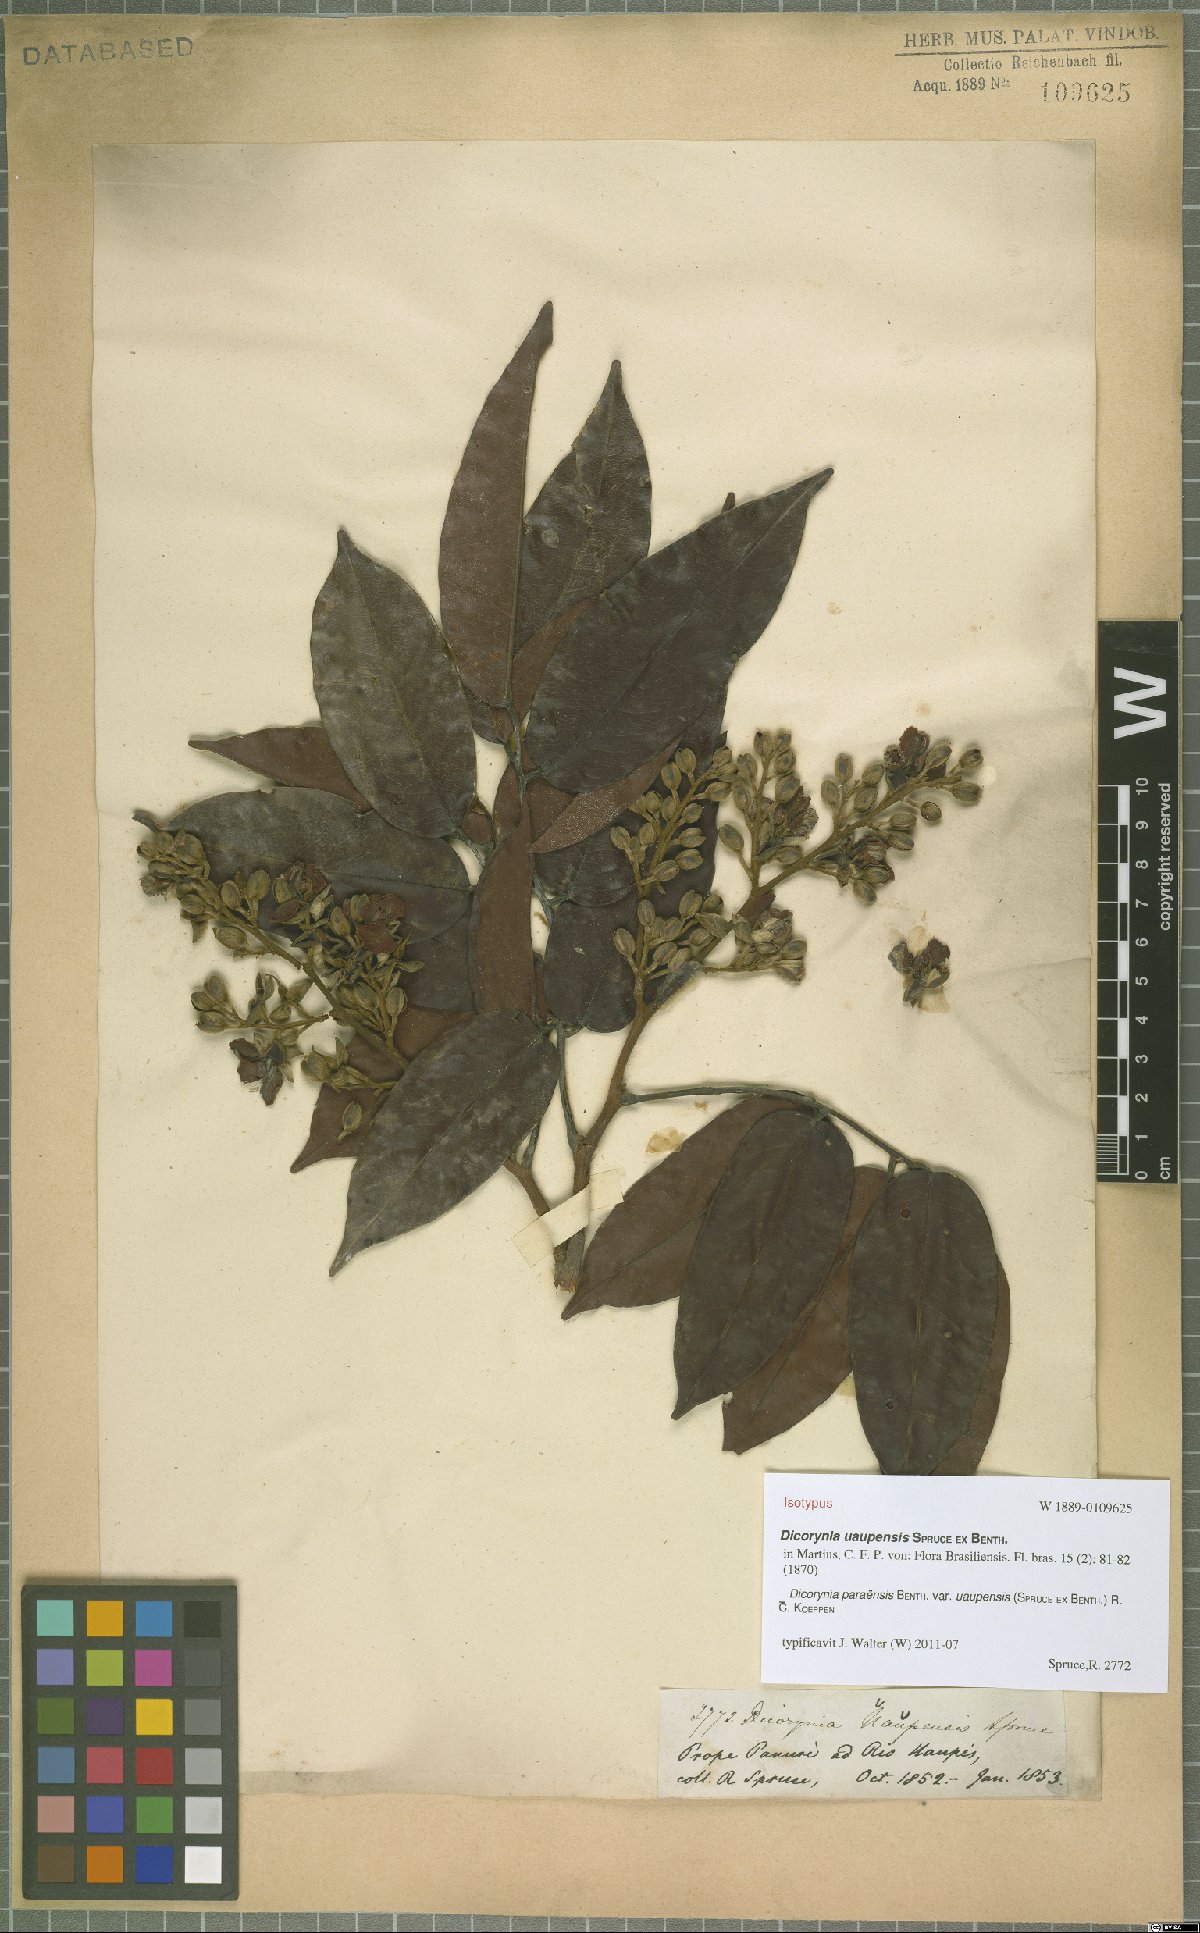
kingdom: Plantae
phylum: Tracheophyta
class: Magnoliopsida
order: Fabales
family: Fabaceae
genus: Dicorynia
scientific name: Dicorynia paraensis
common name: Angelique
